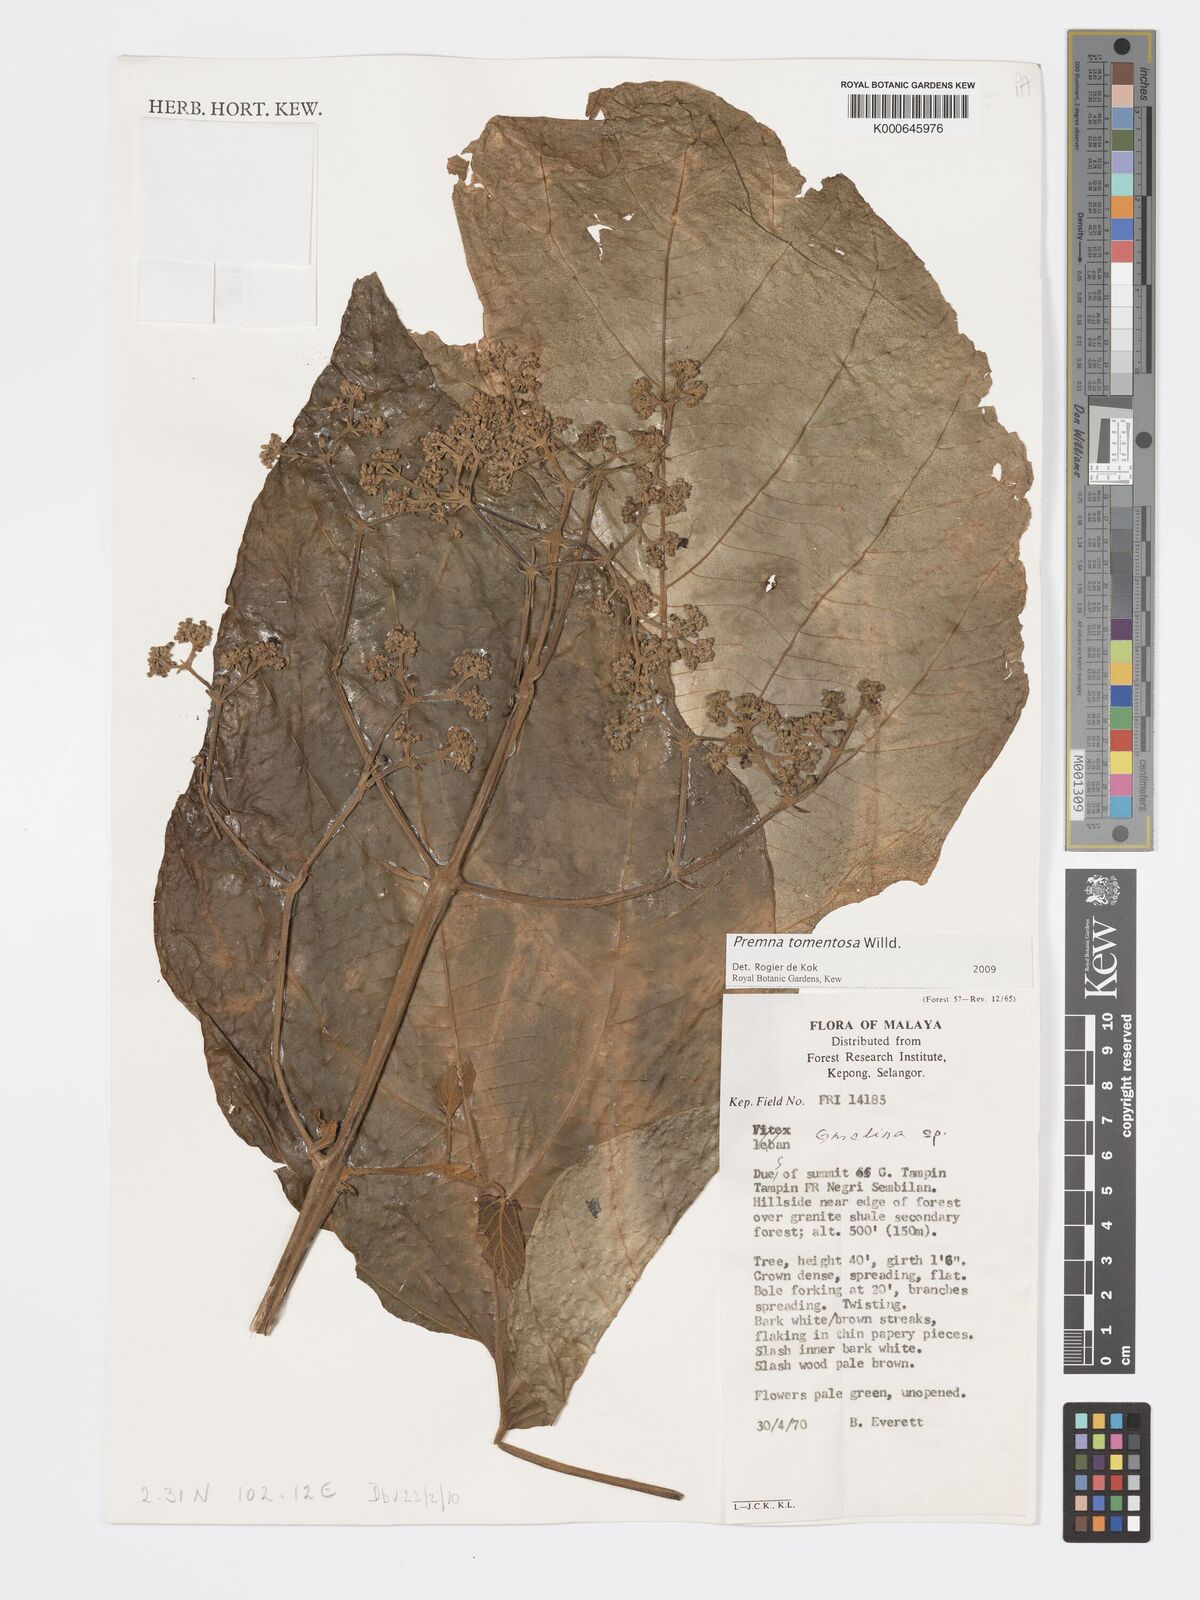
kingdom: Plantae
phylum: Tracheophyta
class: Magnoliopsida
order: Lamiales
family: Lamiaceae
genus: Premna
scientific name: Premna tomentosa
